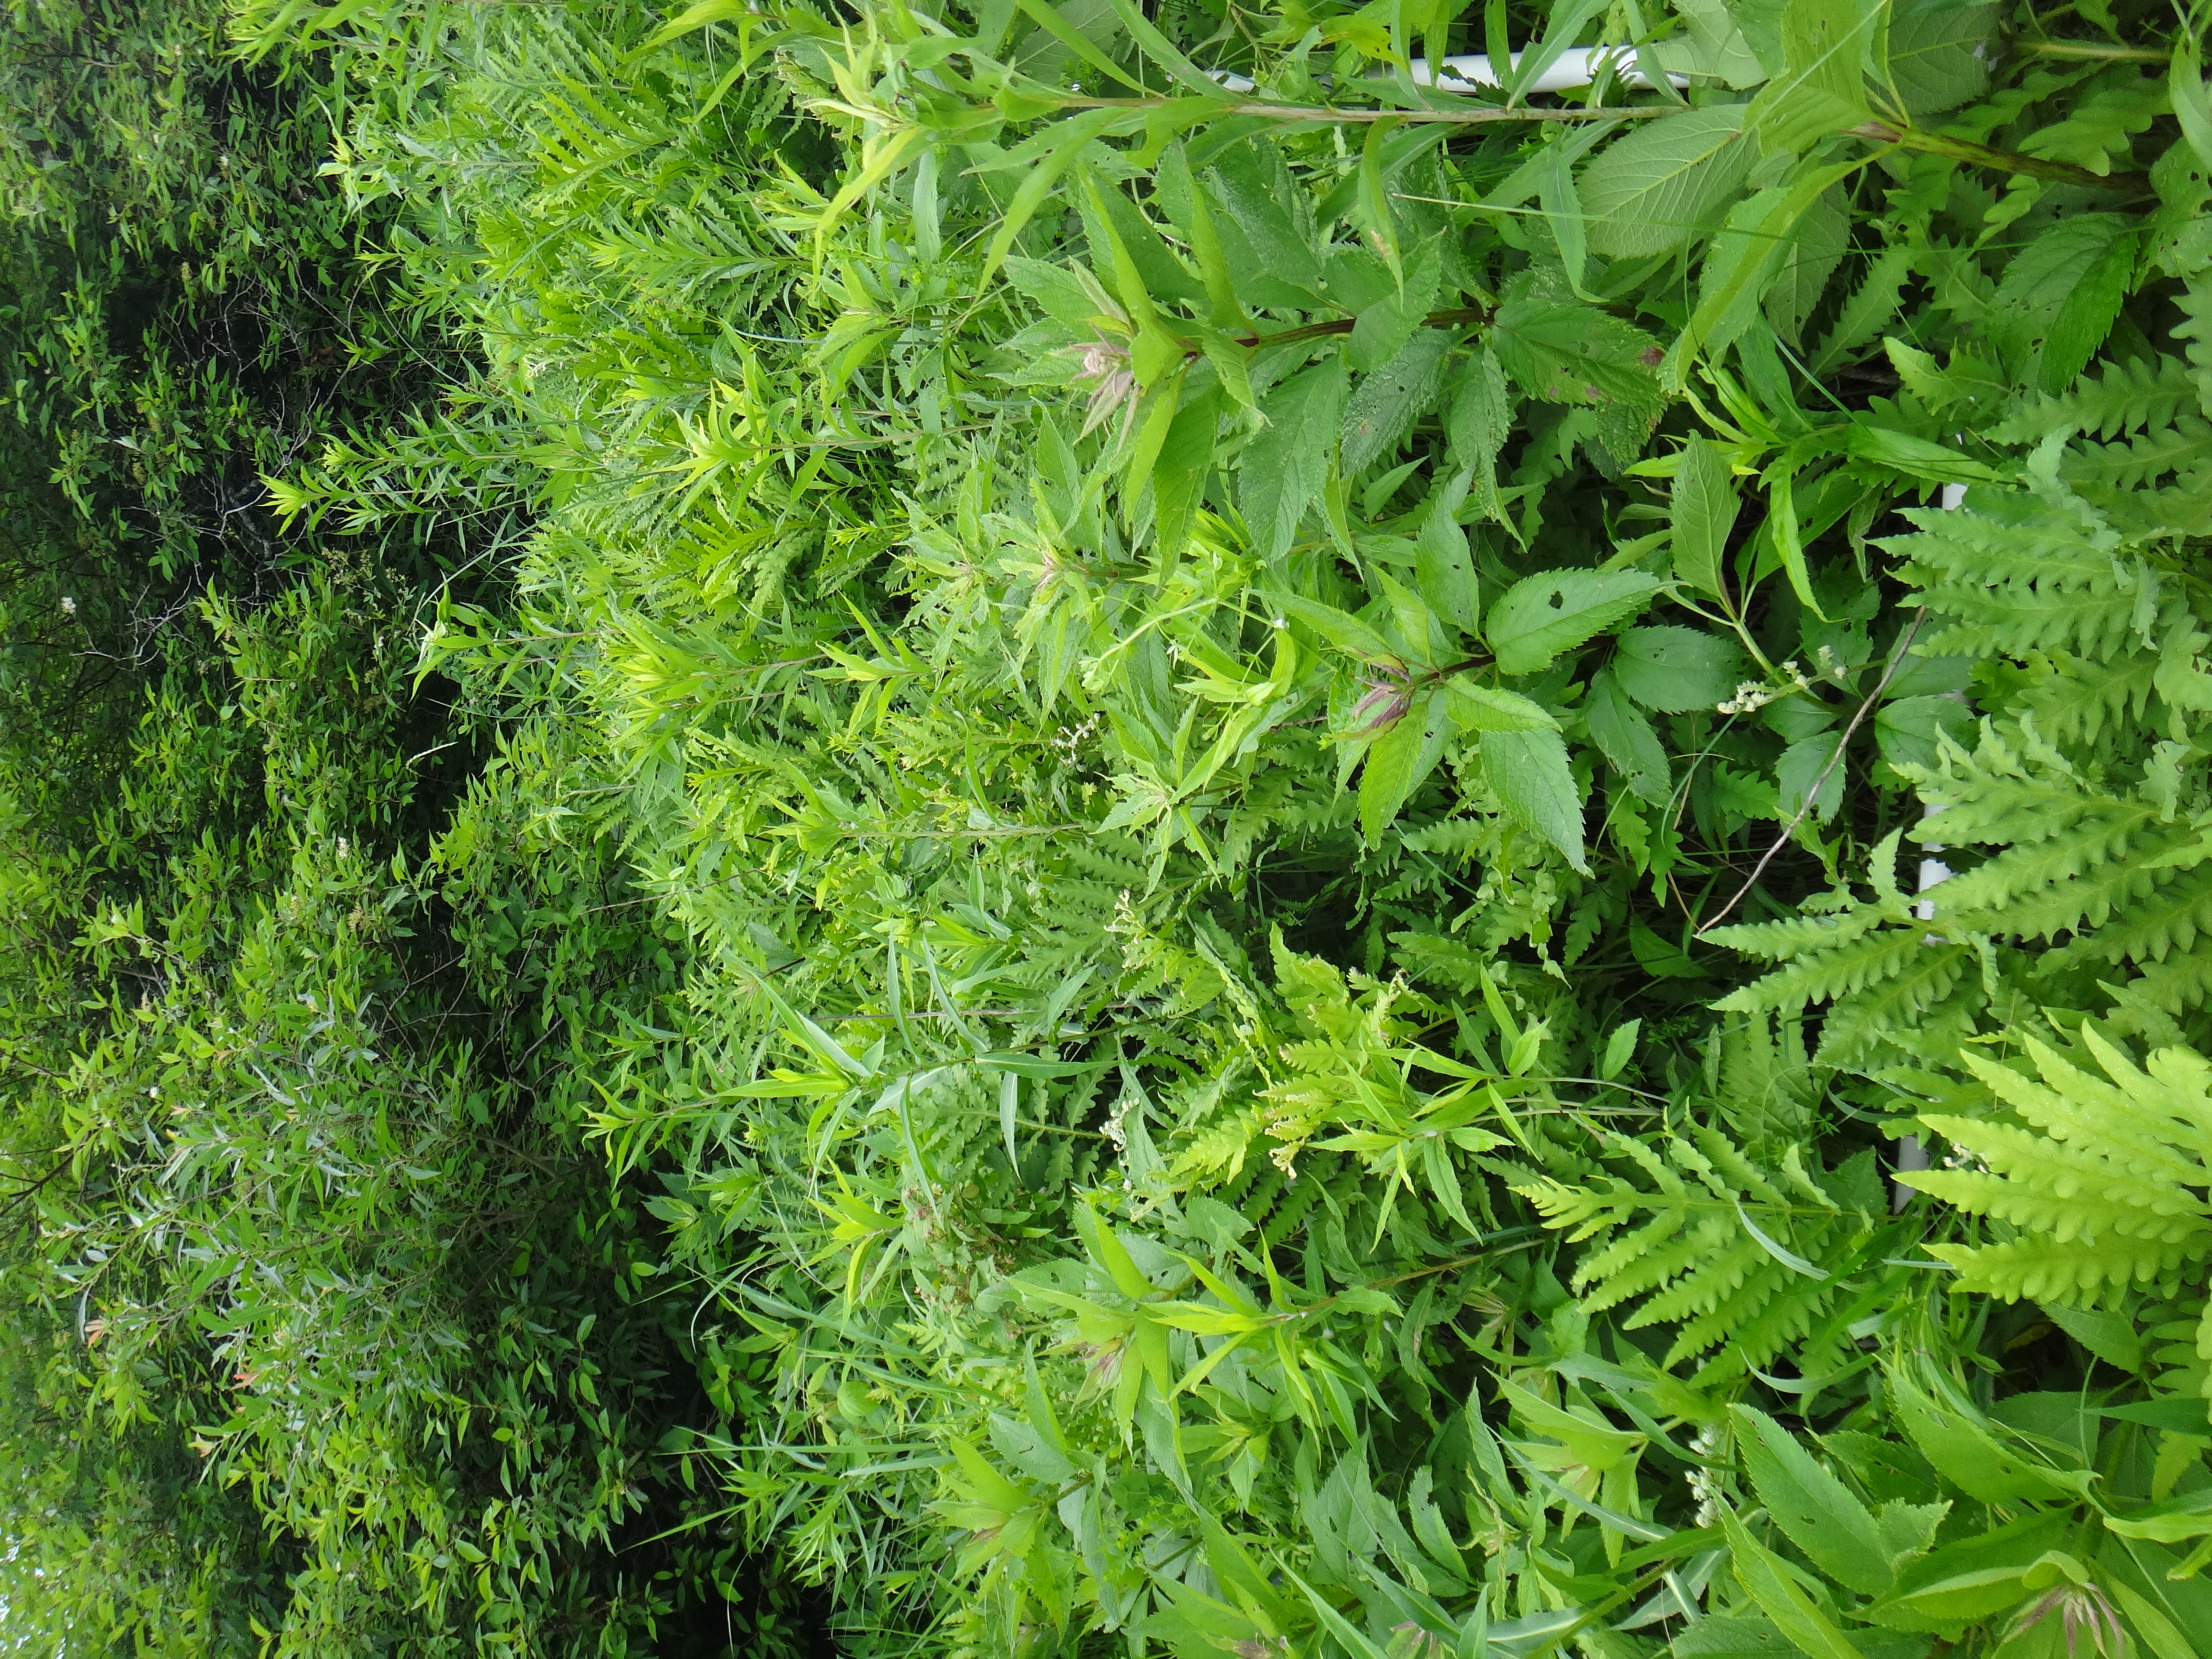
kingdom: Plantae
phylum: Tracheophyta
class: Magnoliopsida
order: Fabales
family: Fabaceae
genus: Lathyrus
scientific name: Lathyrus palustris
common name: Marsh pea
